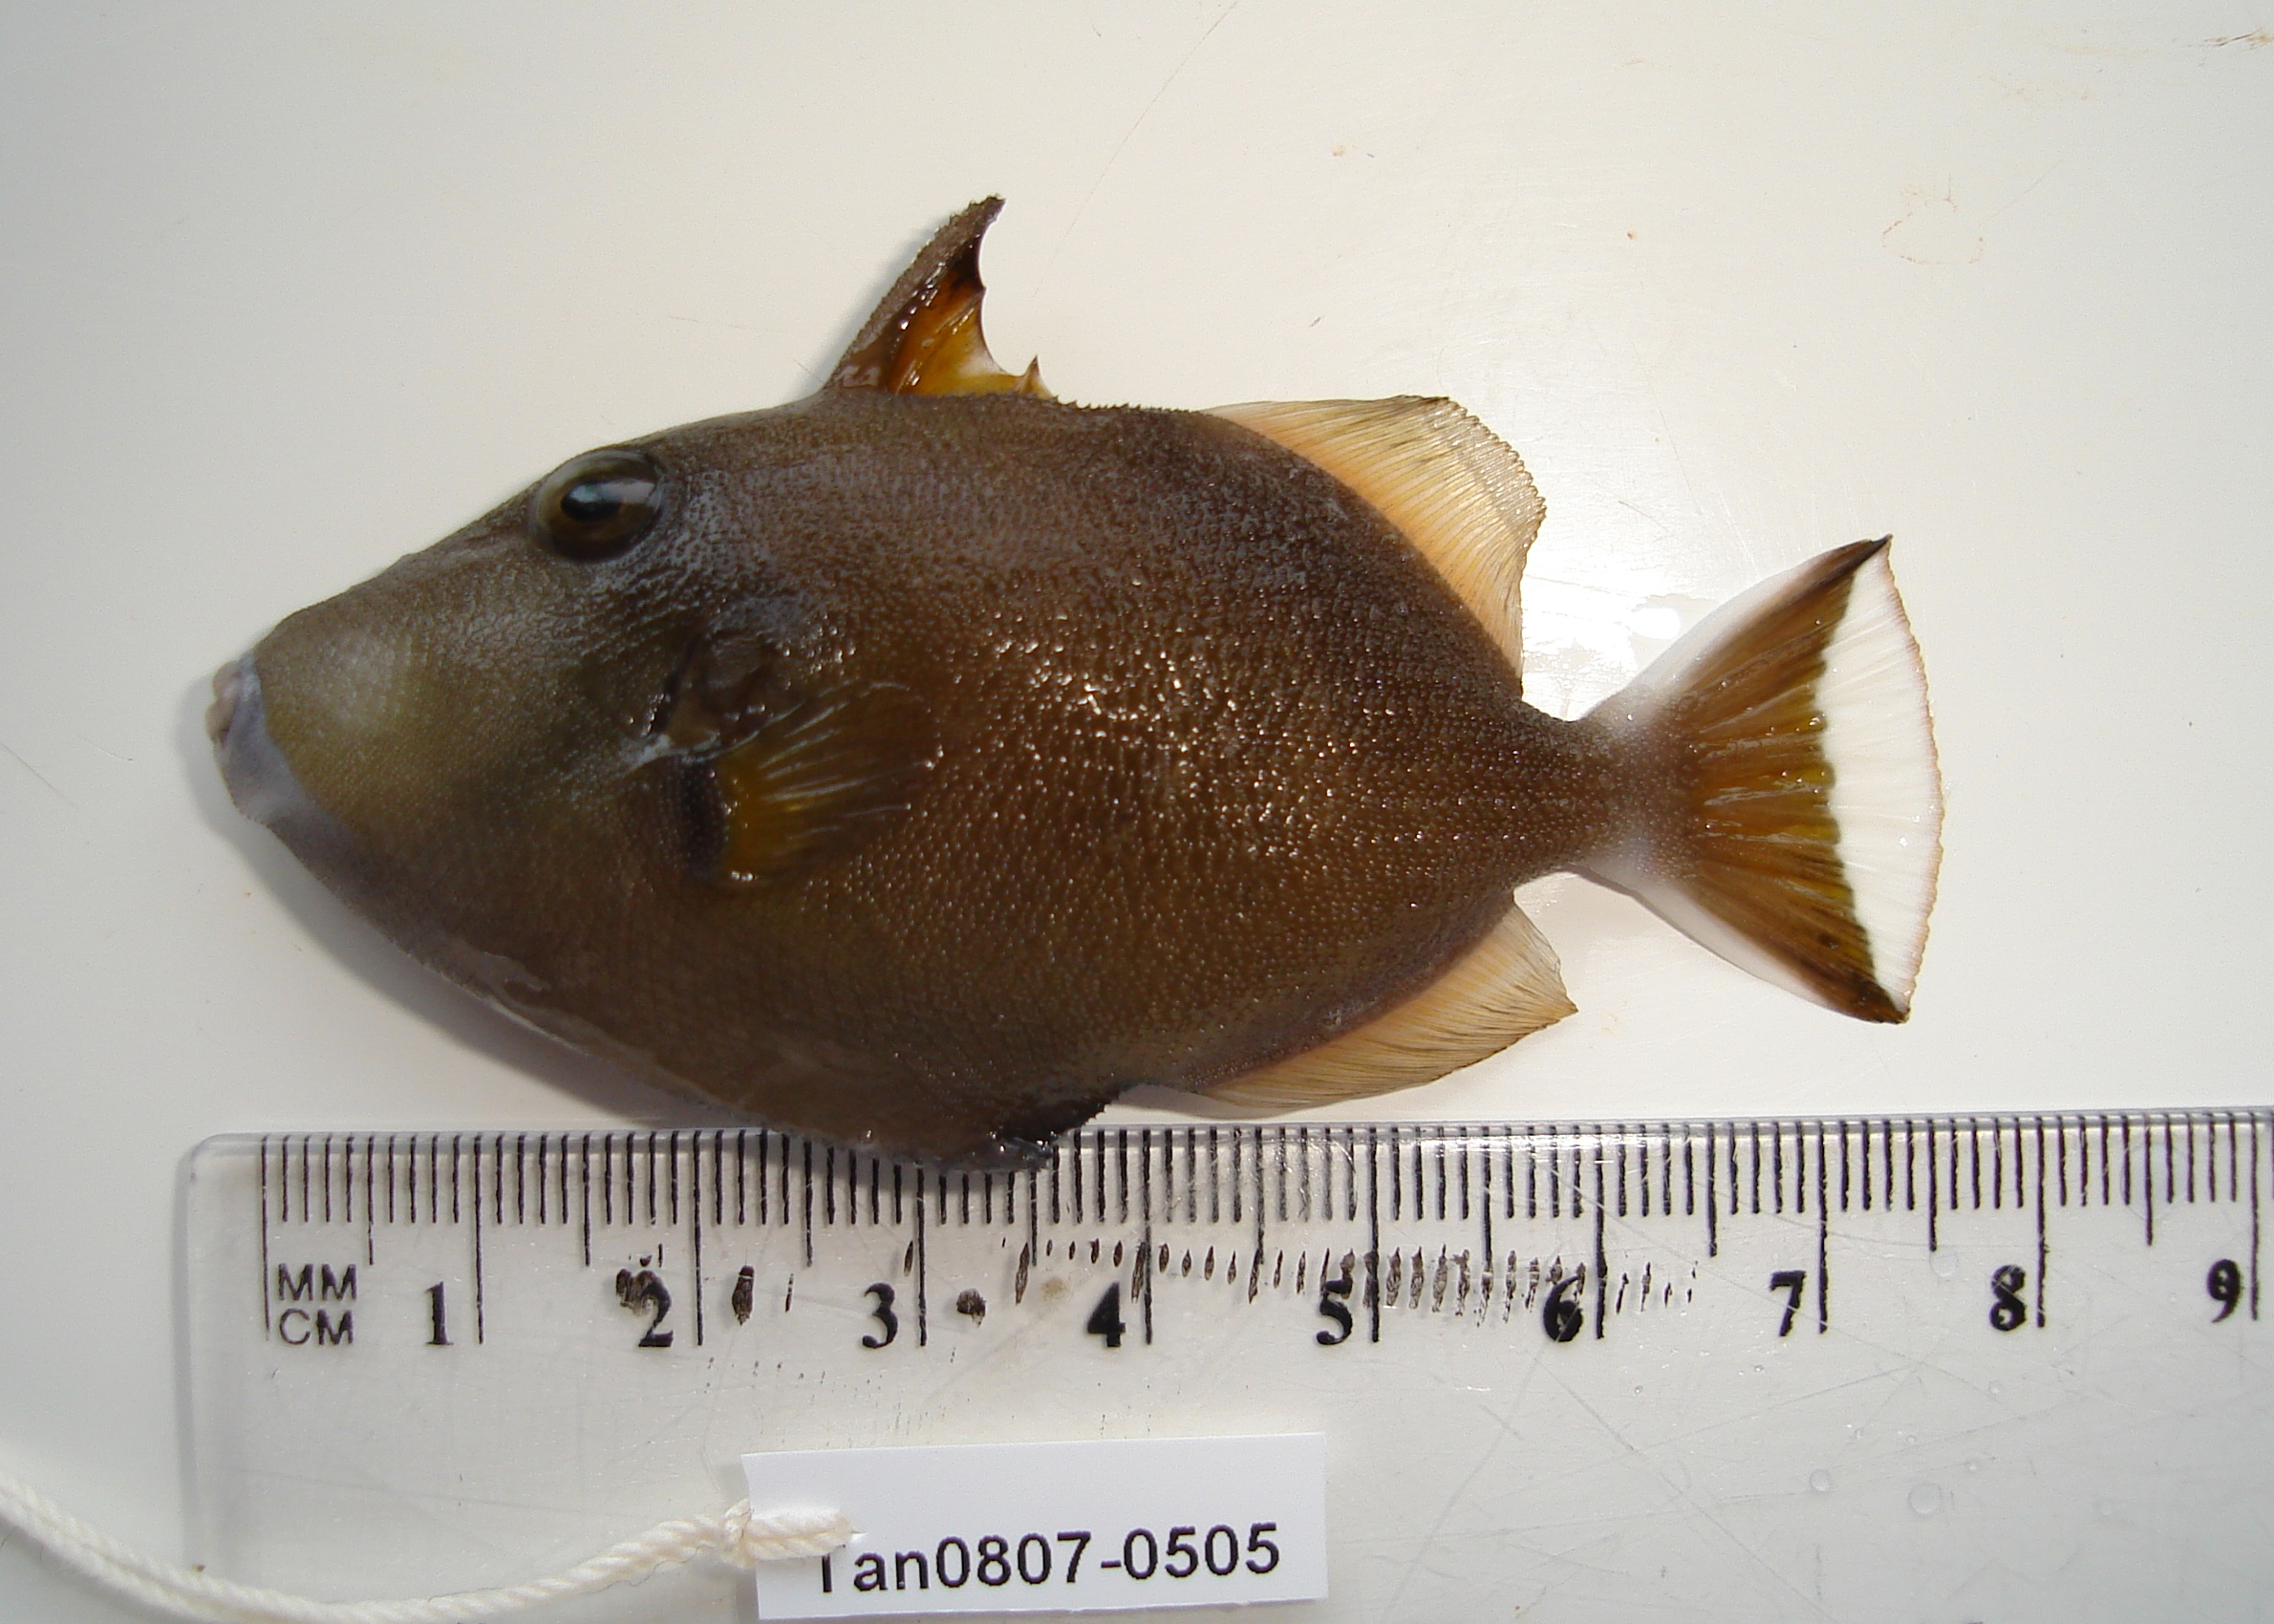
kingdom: Animalia
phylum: Chordata
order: Tetraodontiformes
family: Balistidae
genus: Sufflamen
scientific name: Sufflamen chrysopterum
